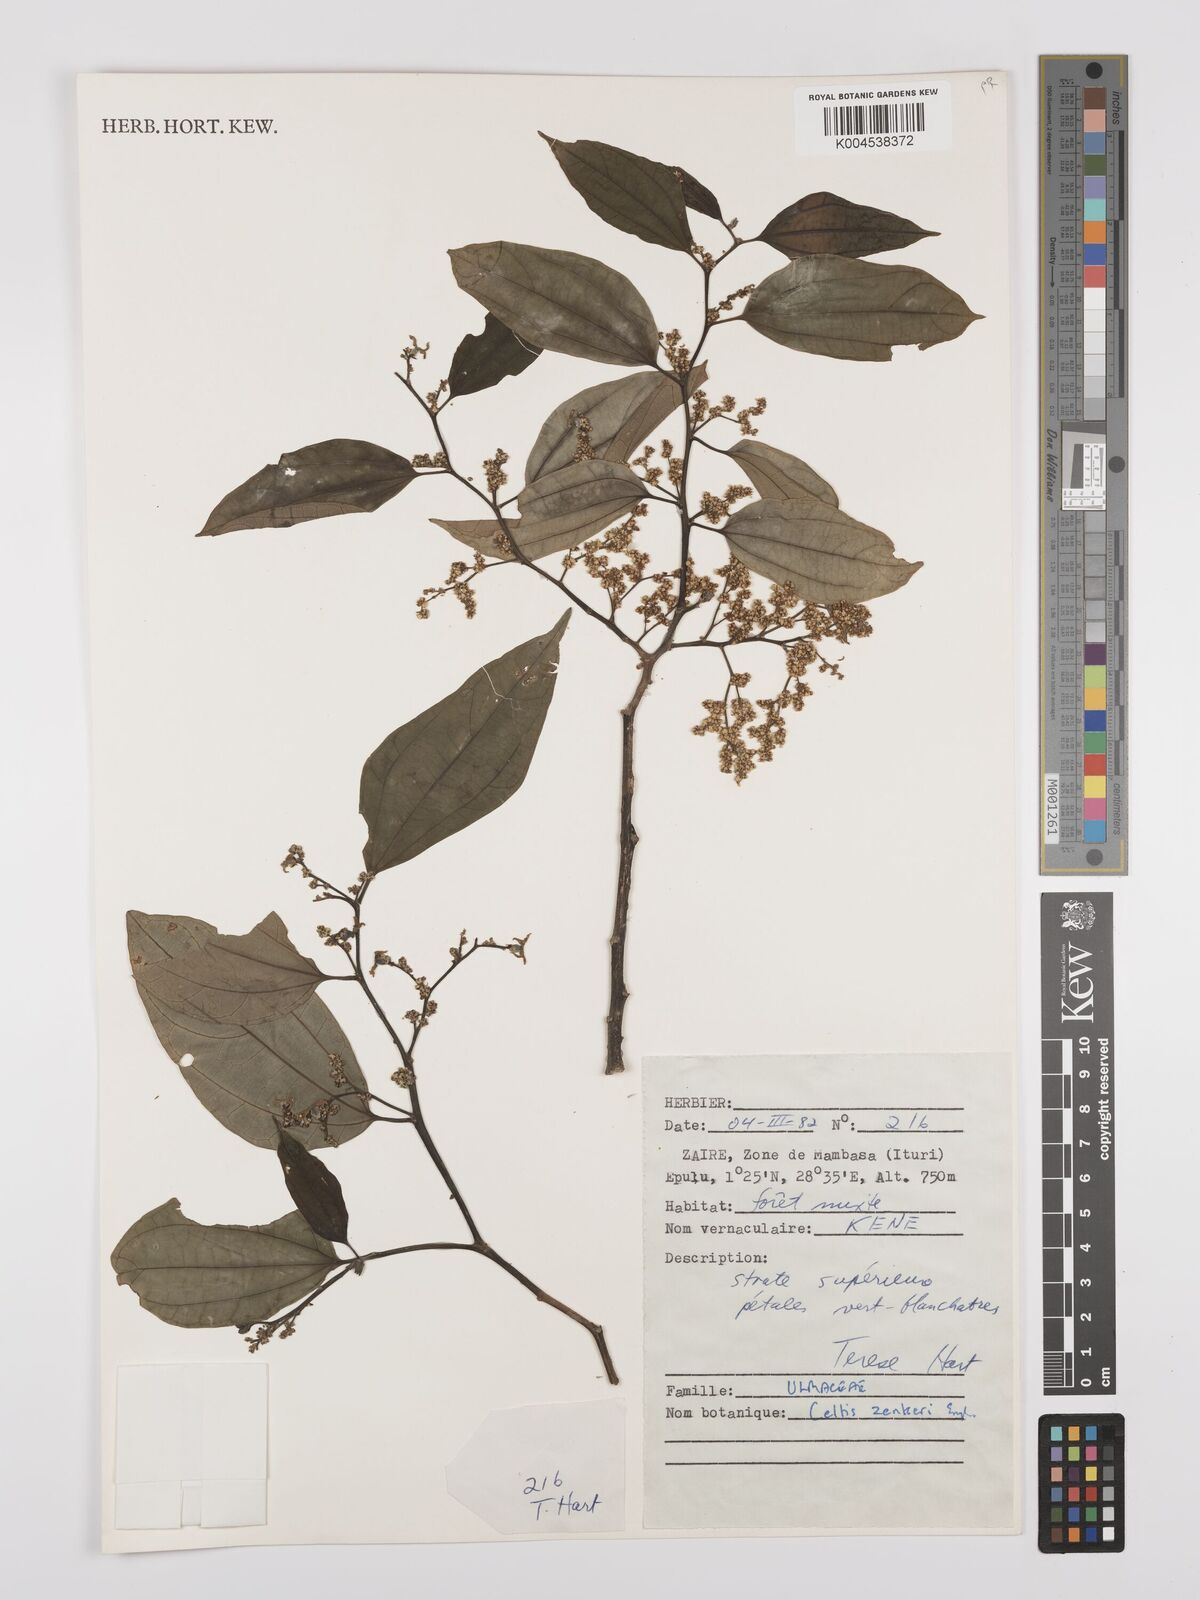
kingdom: Plantae
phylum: Tracheophyta
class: Magnoliopsida
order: Rosales
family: Cannabaceae
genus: Celtis
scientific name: Celtis zenkeri
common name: African celtis
